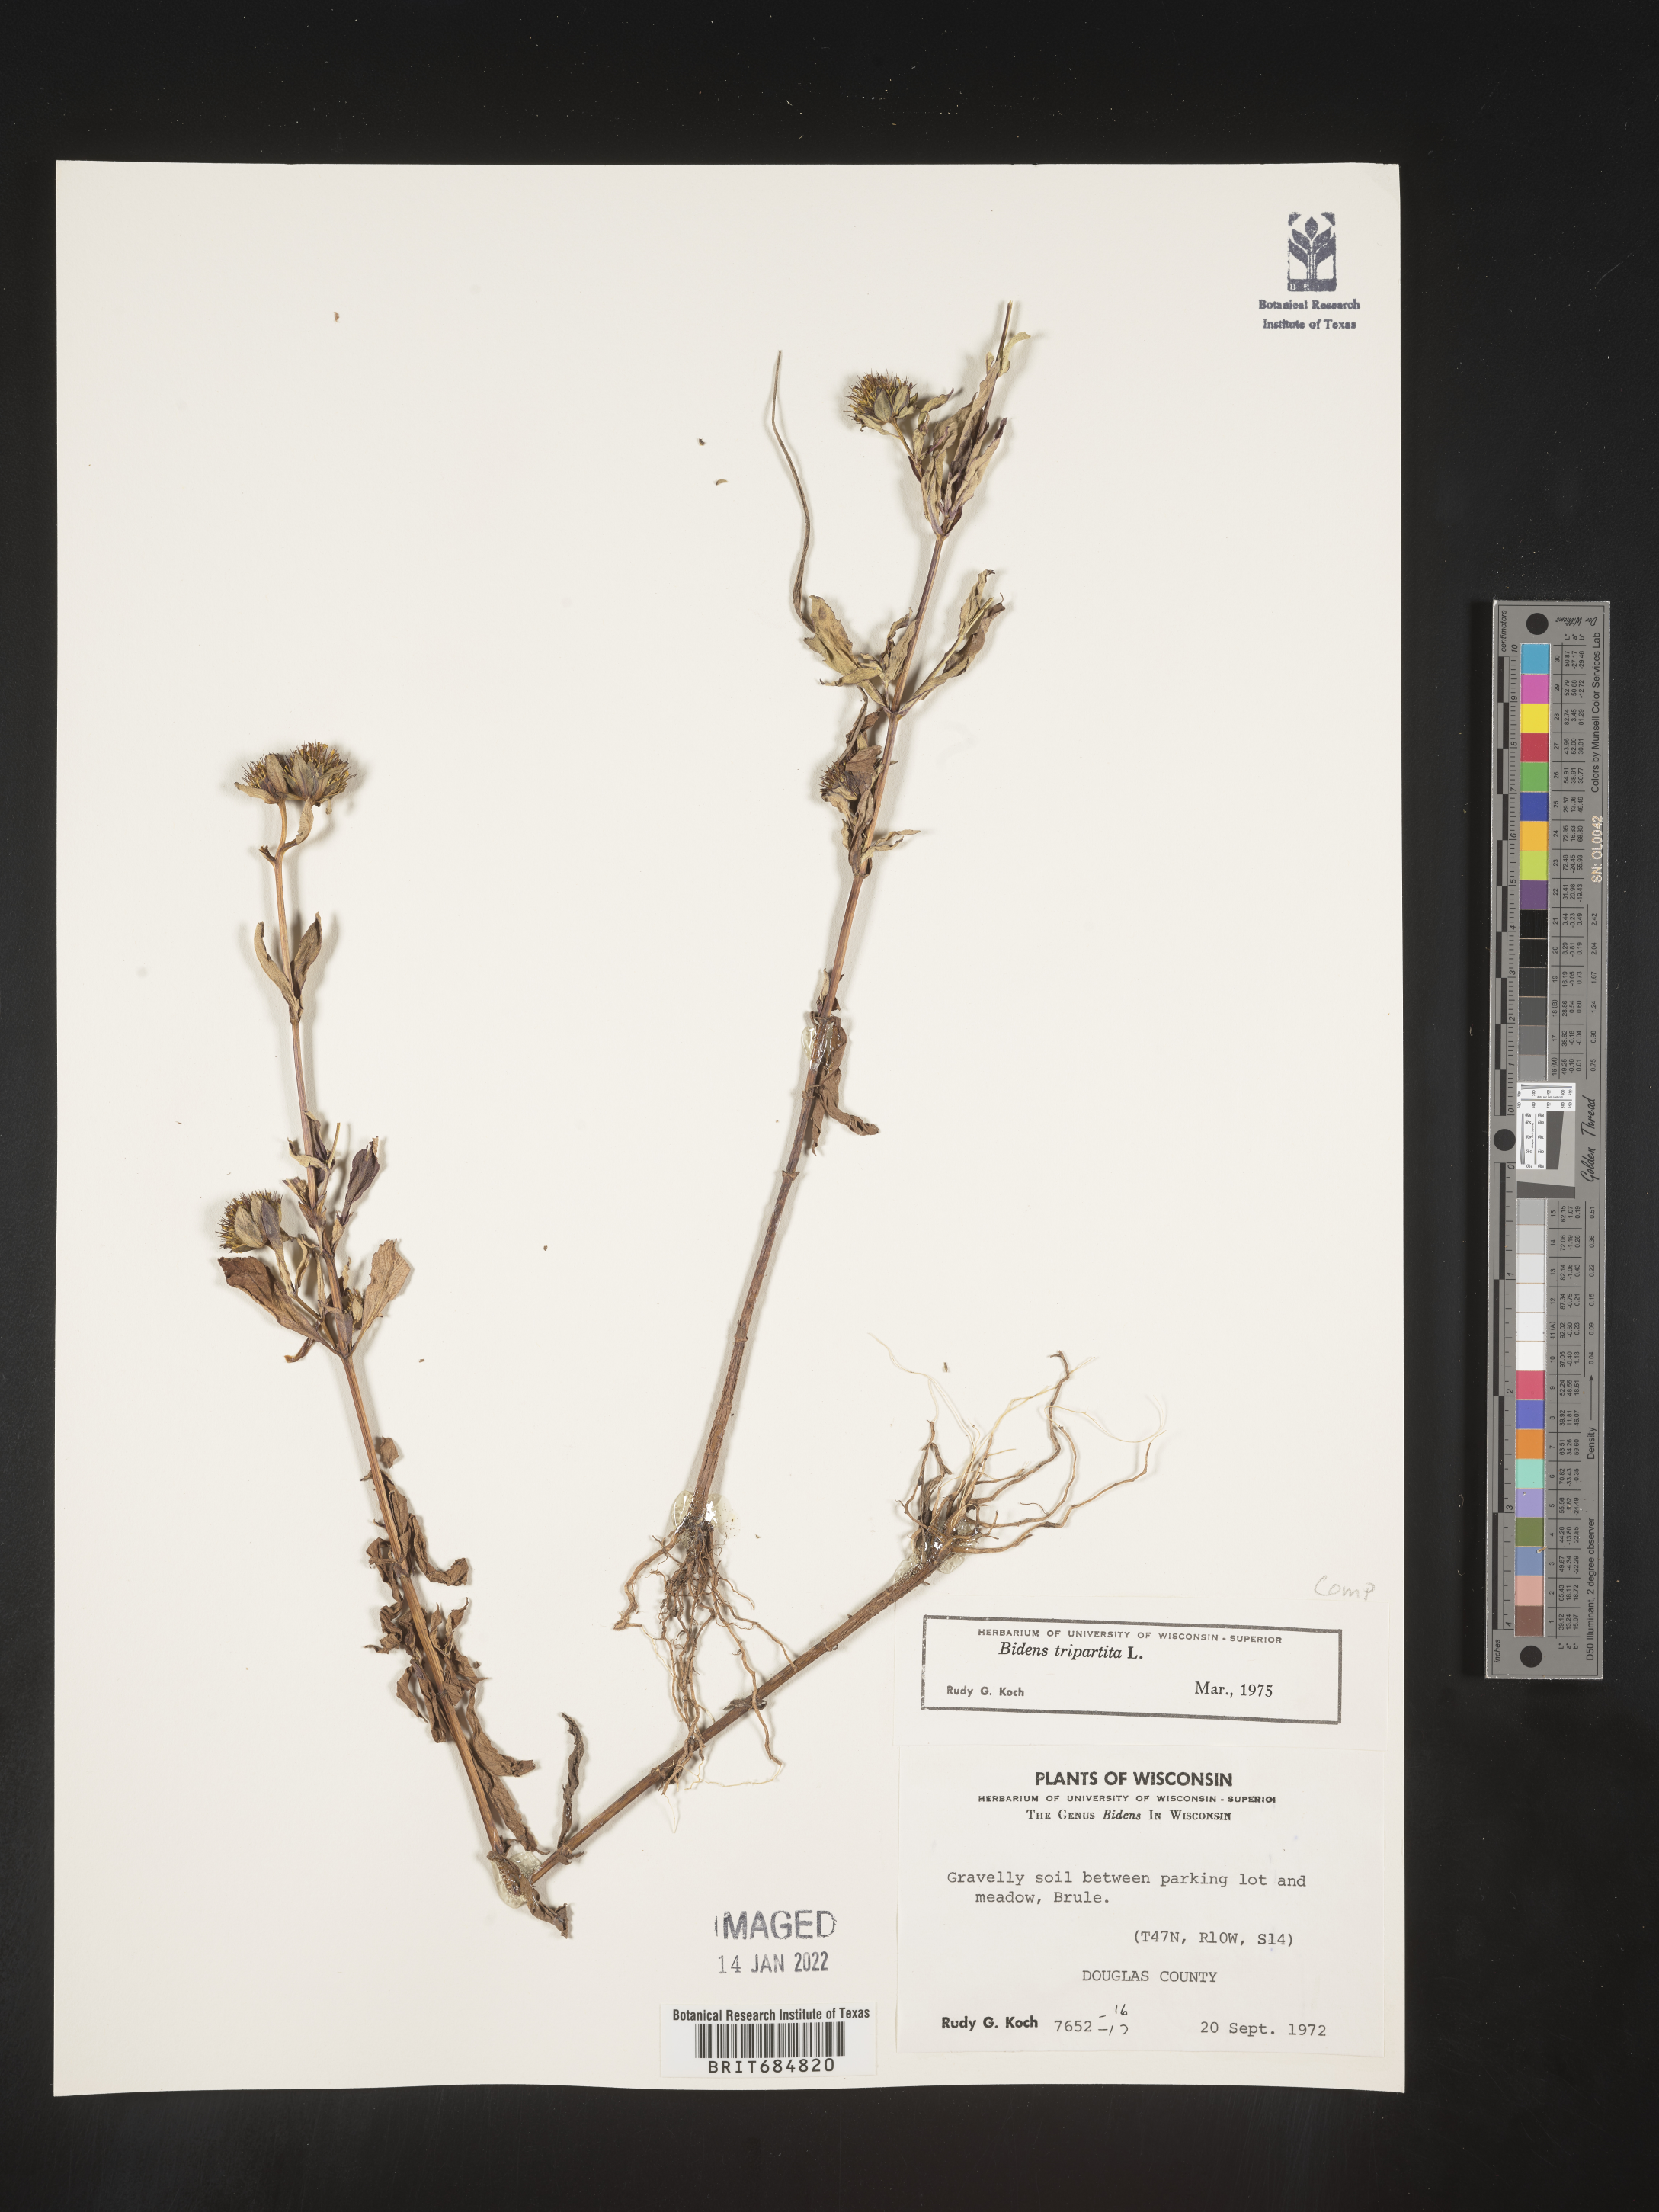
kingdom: Plantae
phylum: Tracheophyta
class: Magnoliopsida
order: Asterales
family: Asteraceae
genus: Bidens
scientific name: Bidens tripartita
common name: Trifid bur-marigold
